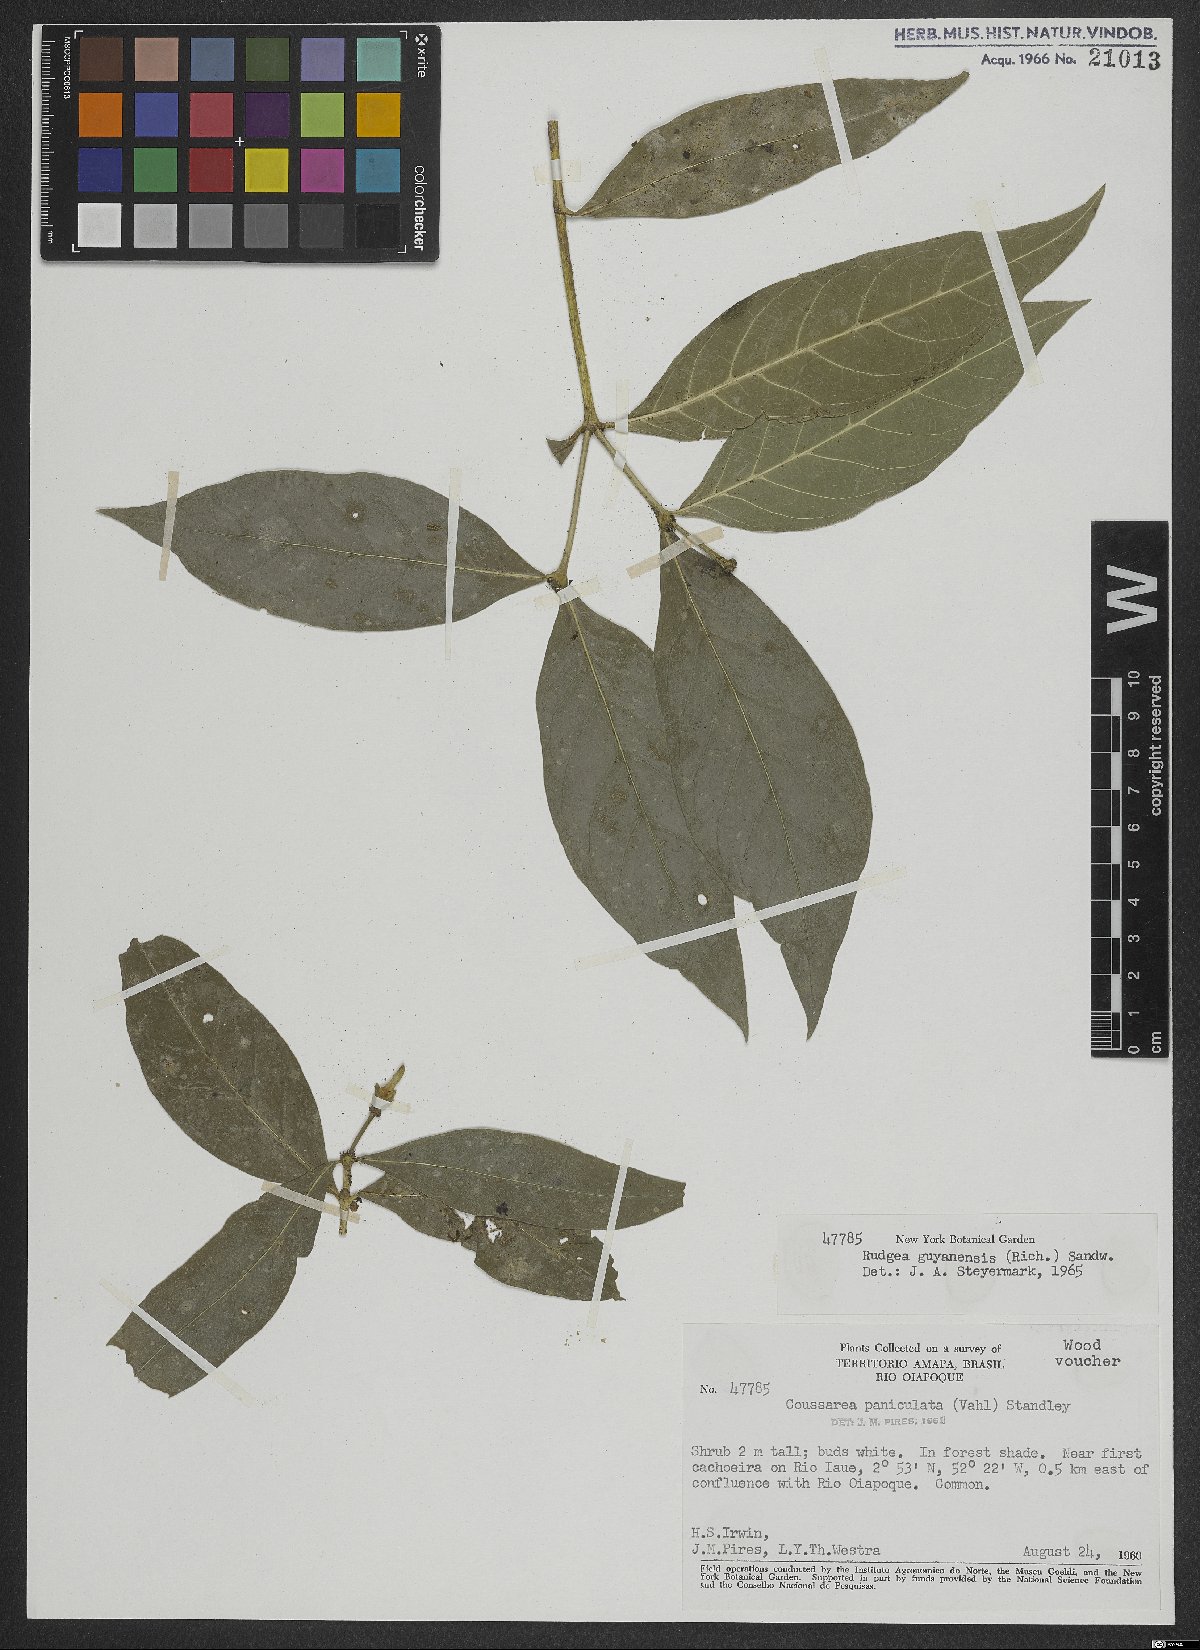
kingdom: Plantae
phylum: Tracheophyta
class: Magnoliopsida
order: Gentianales
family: Rubiaceae
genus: Coussarea
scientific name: Coussarea paniculata
